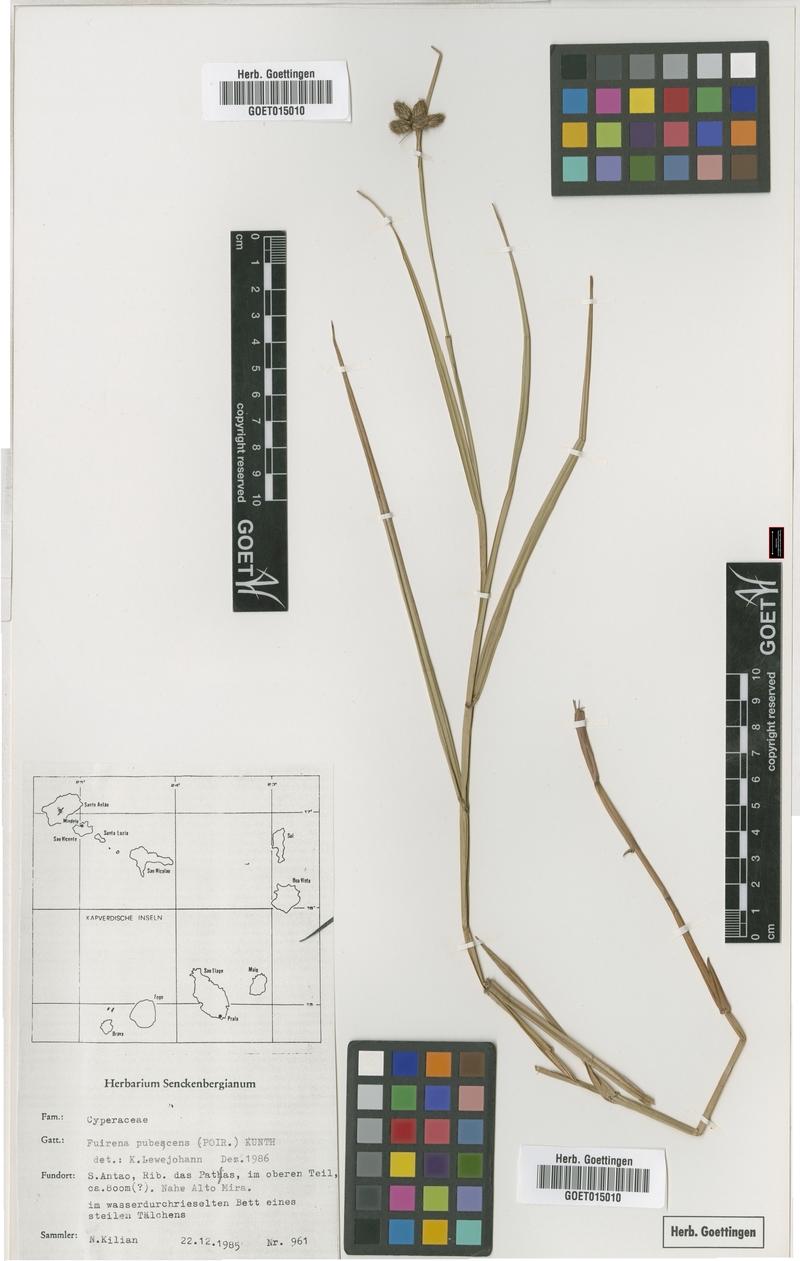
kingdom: Plantae
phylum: Tracheophyta
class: Liliopsida
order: Poales
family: Cyperaceae
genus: Fuirena
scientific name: Fuirena pubescens
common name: Hairy sedge
